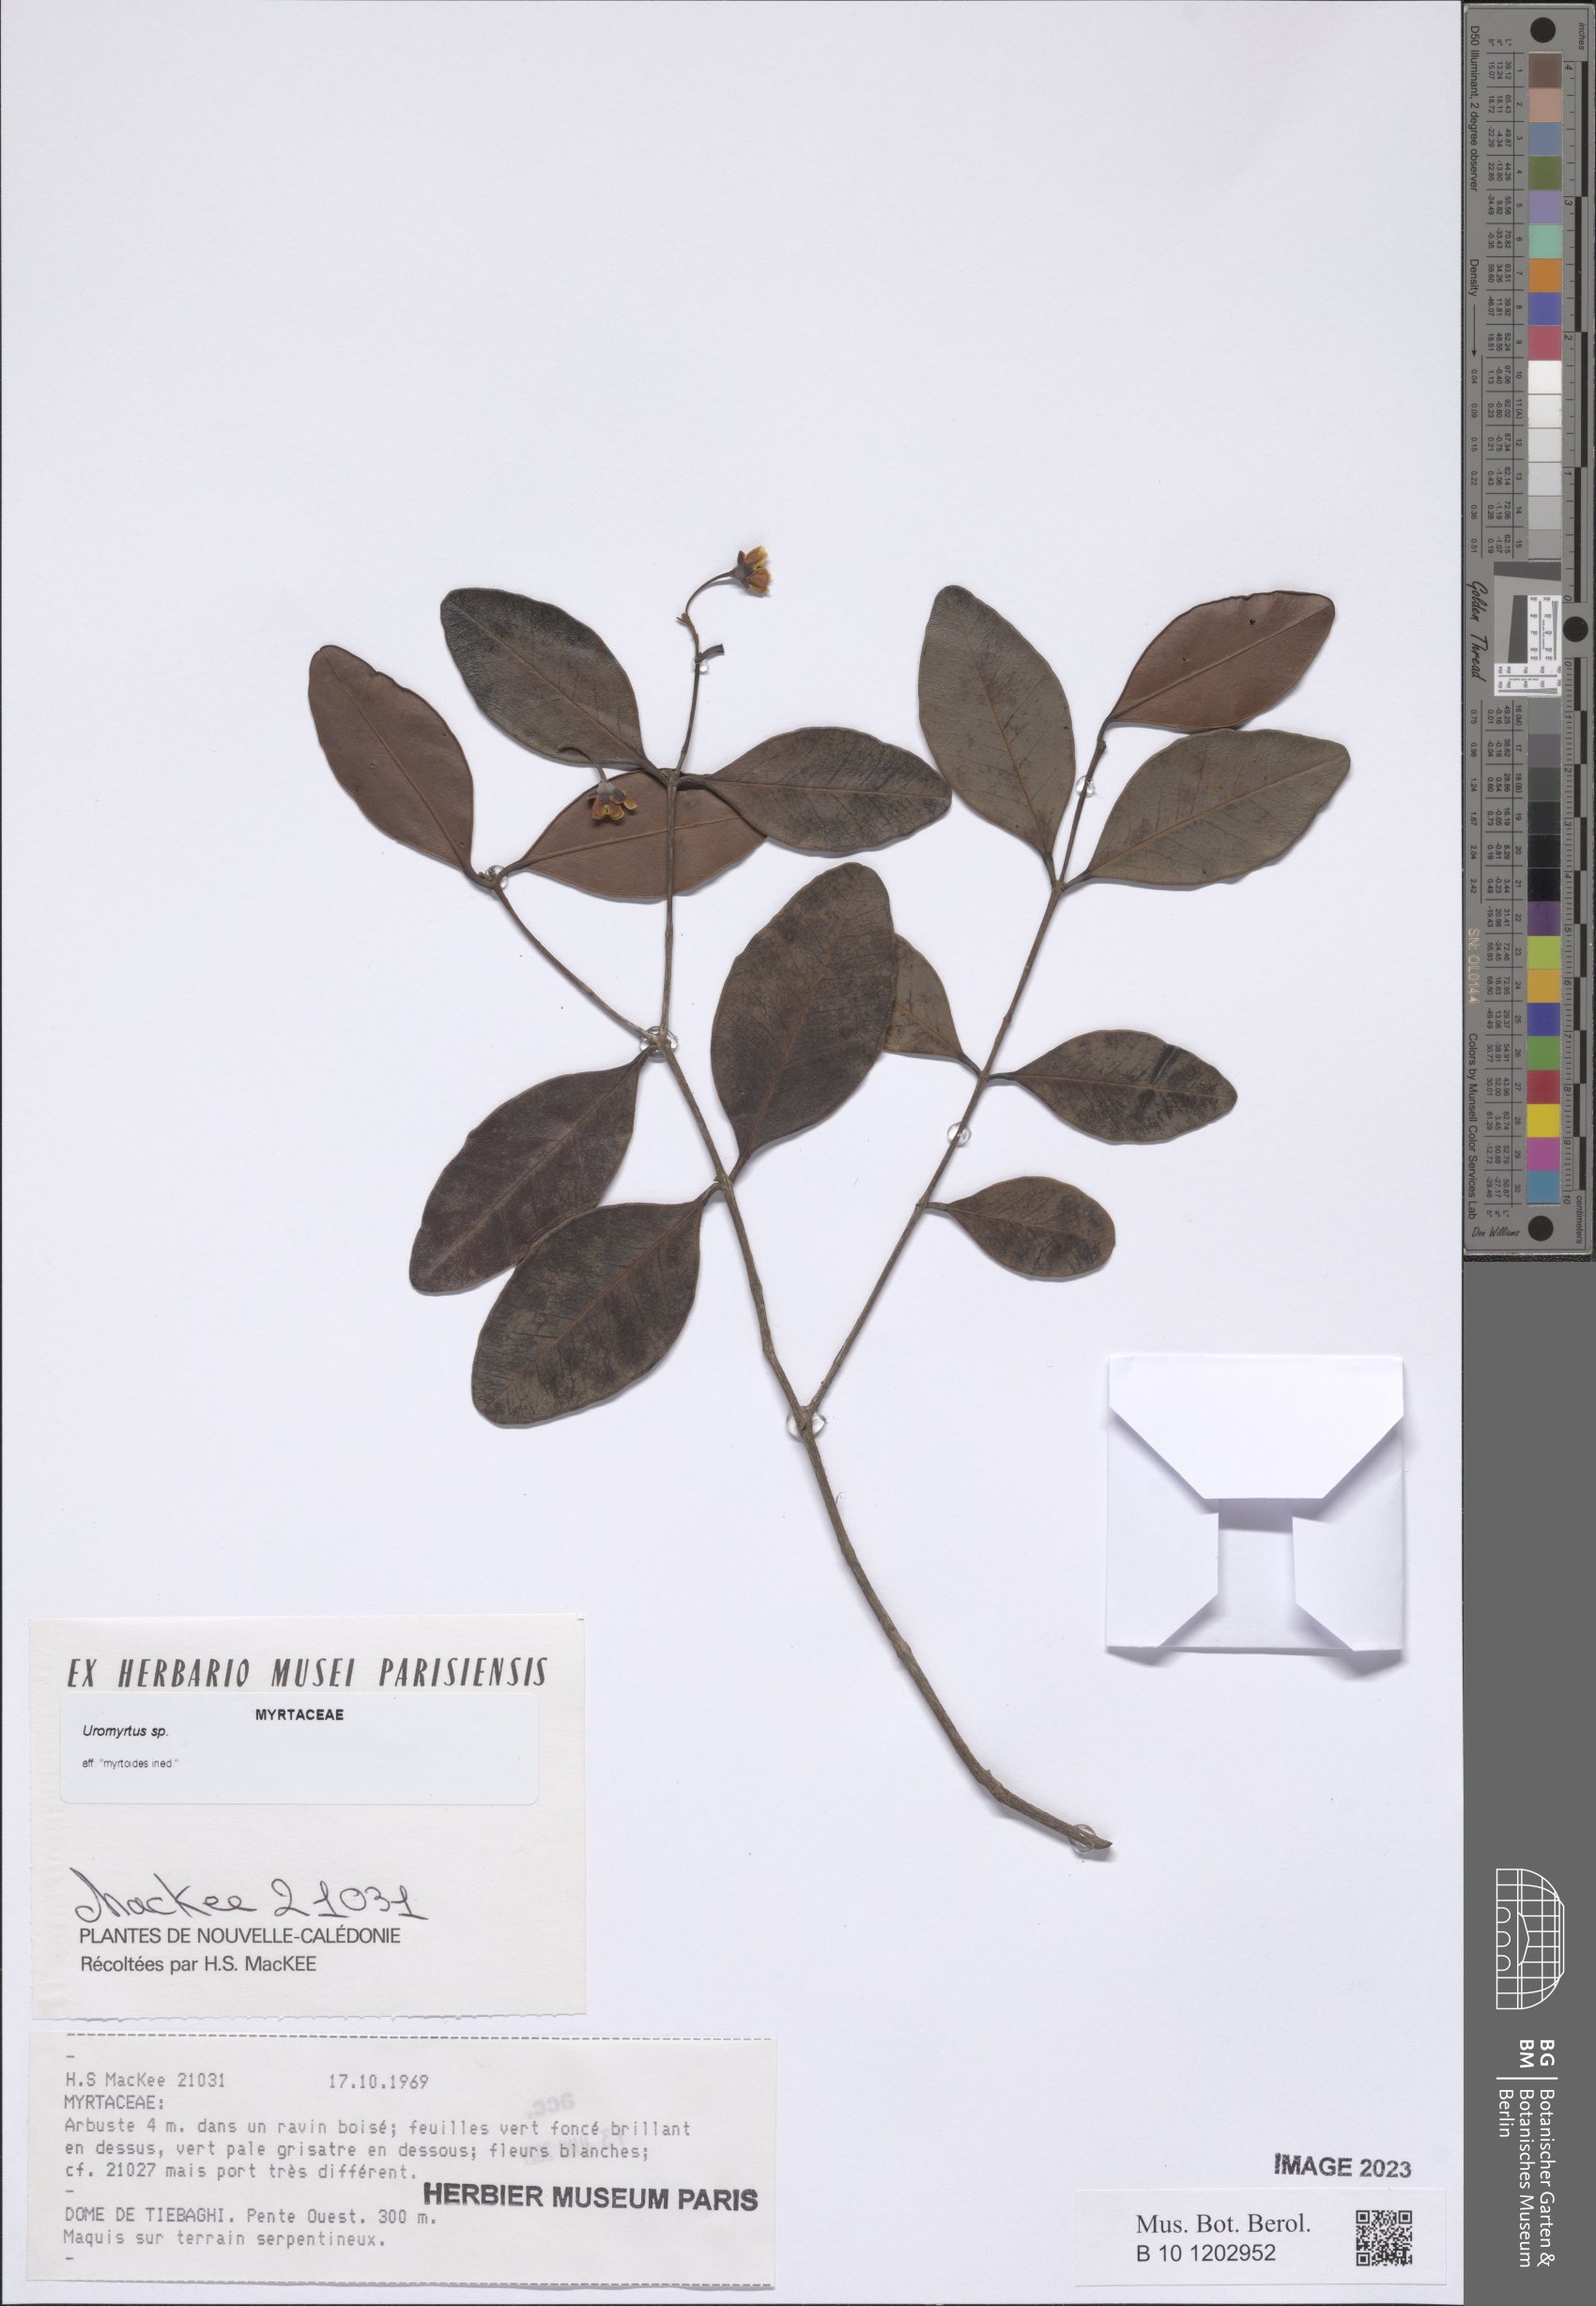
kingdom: Plantae
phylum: Tracheophyta
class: Magnoliopsida
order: Myrtales
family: Myrtaceae
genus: Uromyrtus
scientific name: Uromyrtus
